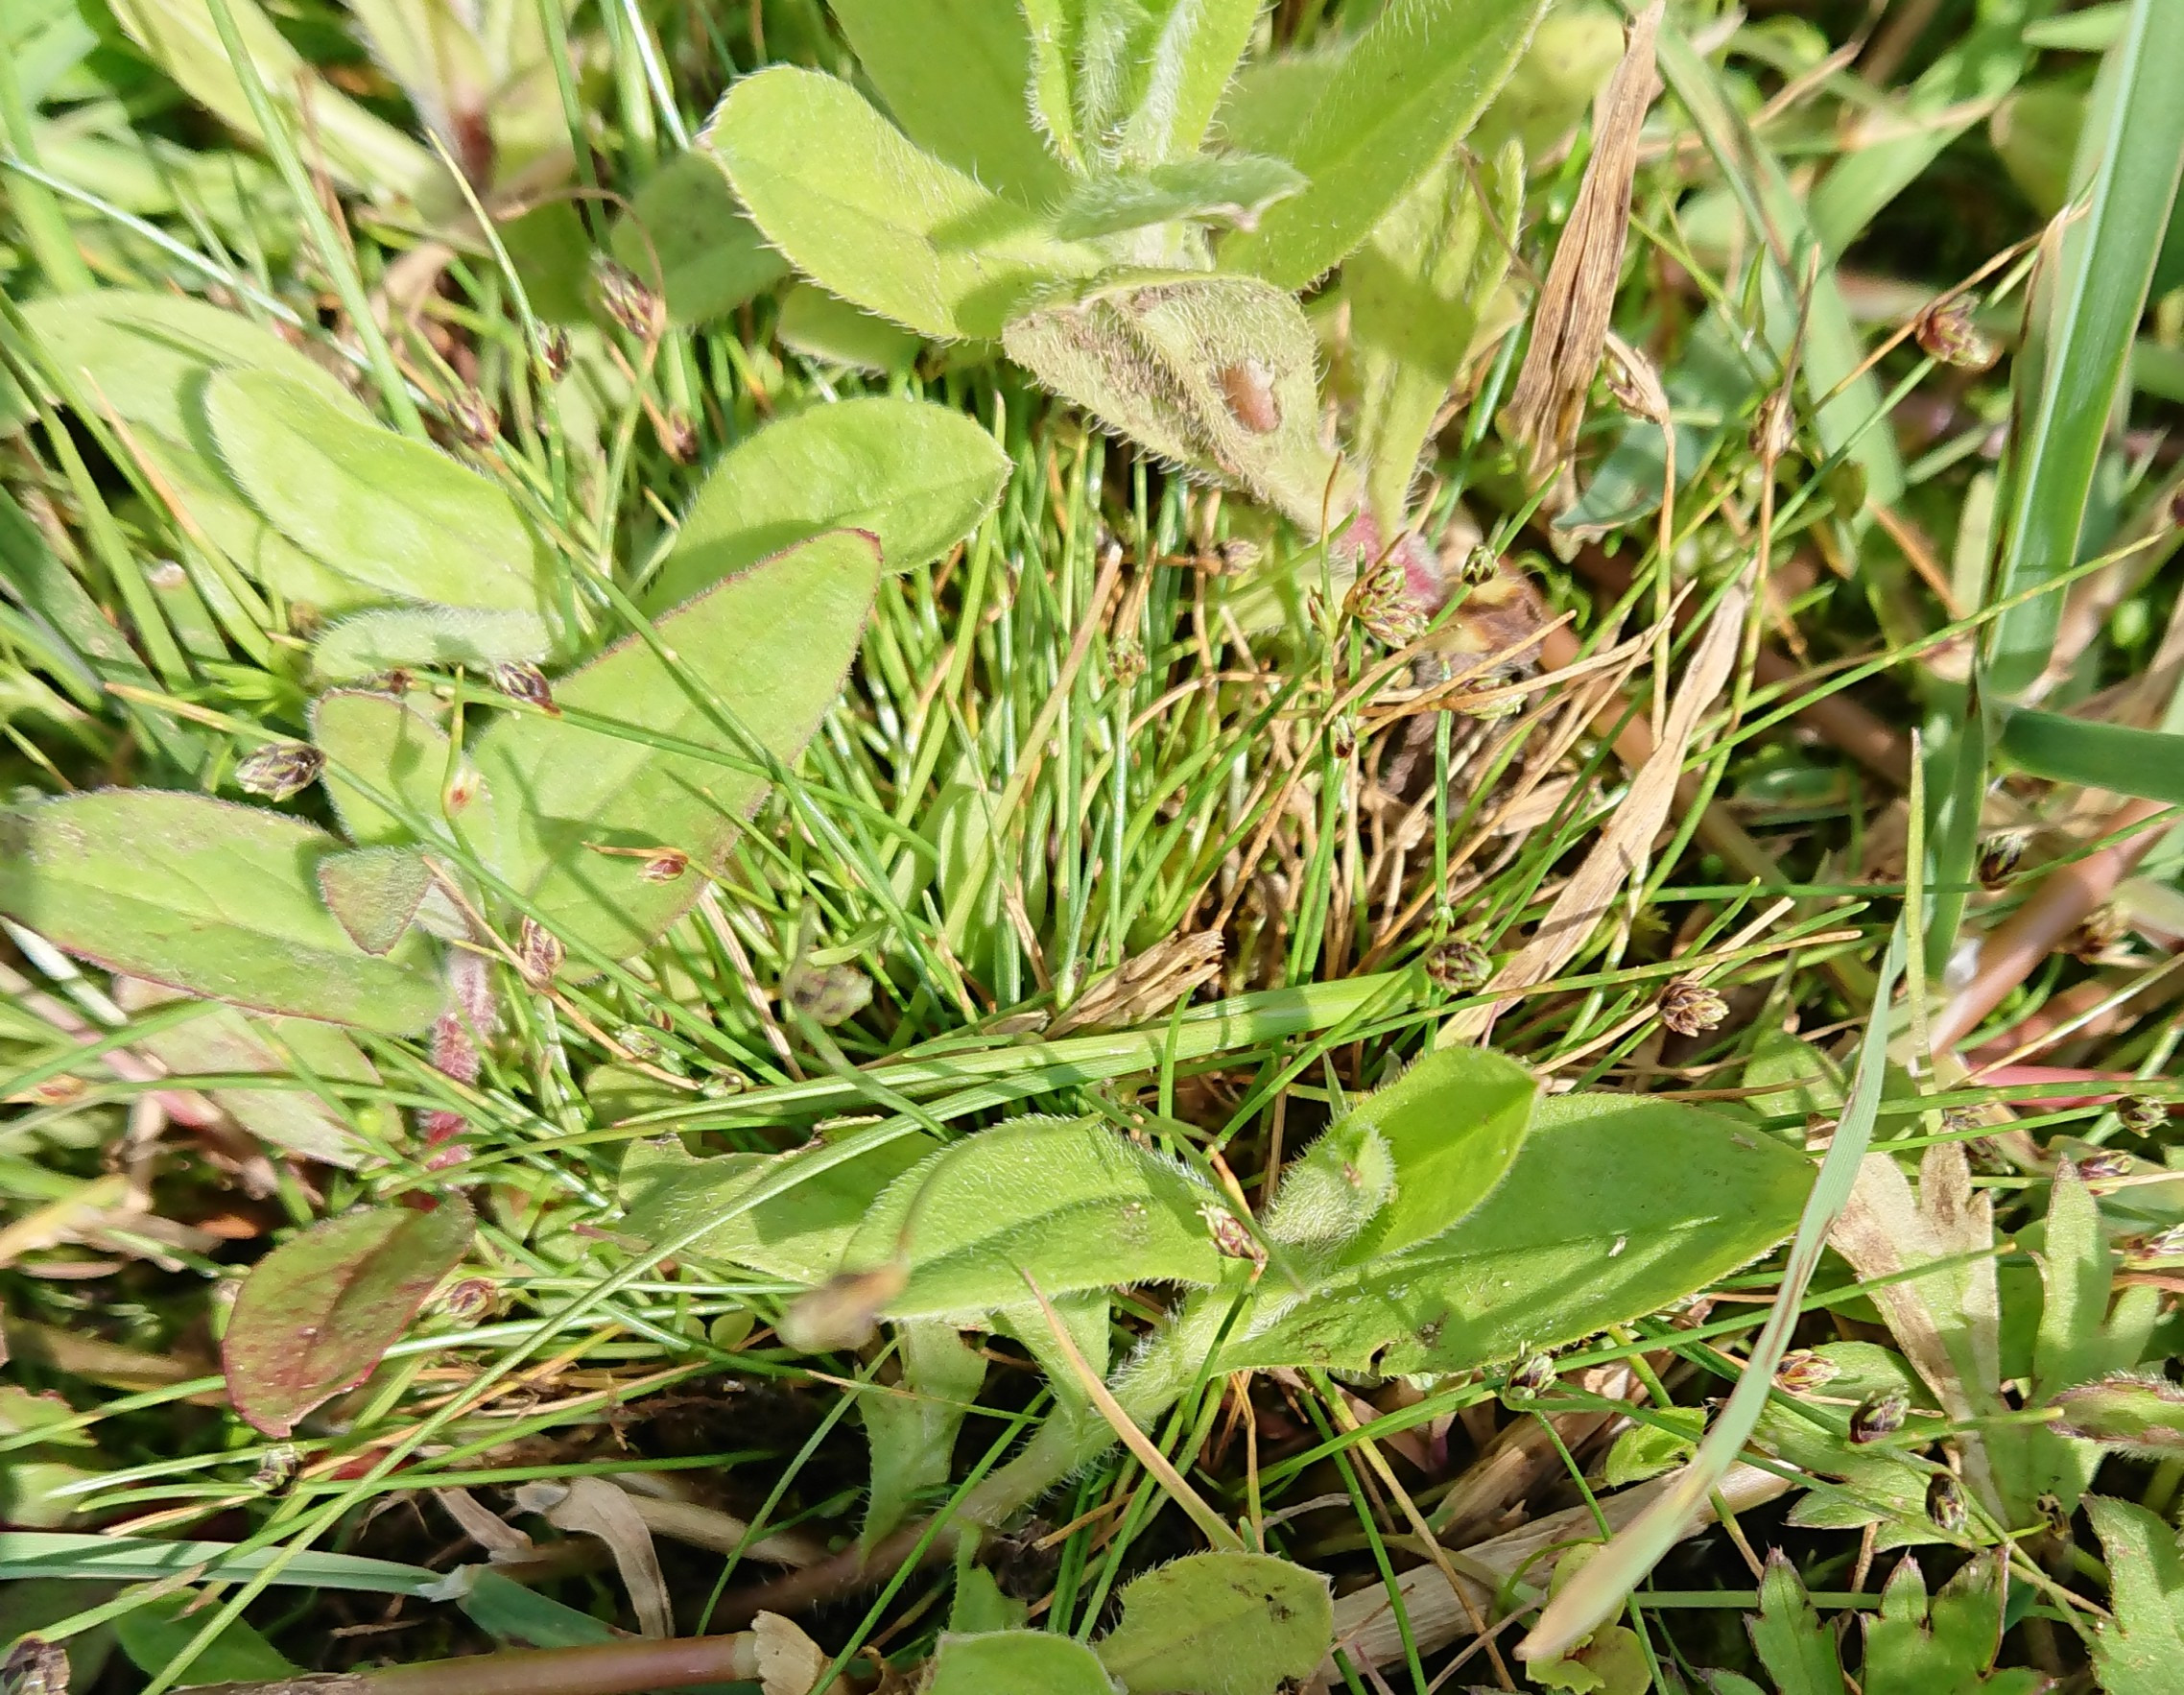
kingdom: Plantae
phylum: Tracheophyta
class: Liliopsida
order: Poales
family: Cyperaceae
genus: Isolepis
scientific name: Isolepis setacea
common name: Børste-kogleaks
